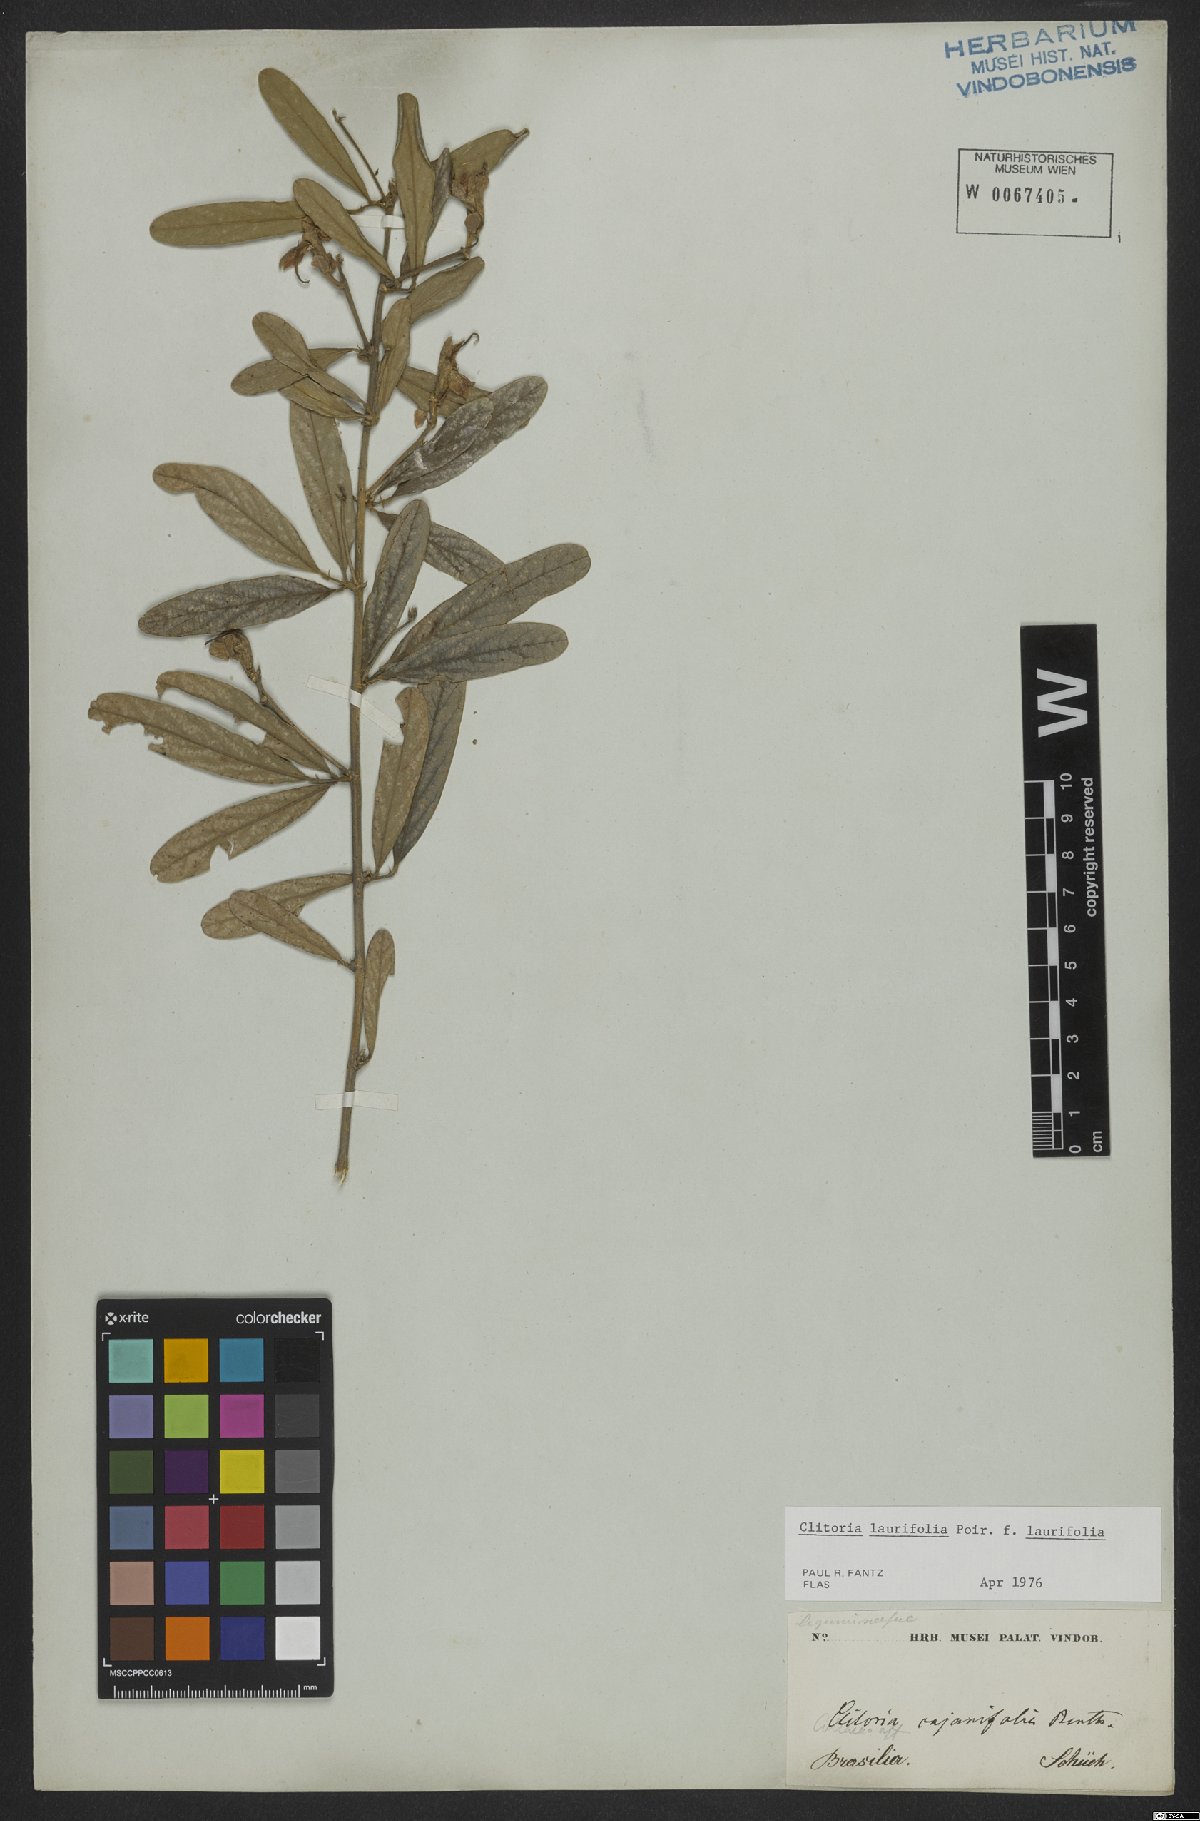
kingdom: Plantae
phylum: Tracheophyta
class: Magnoliopsida
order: Fabales
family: Fabaceae
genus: Clitoria
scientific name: Clitoria laurifolia
